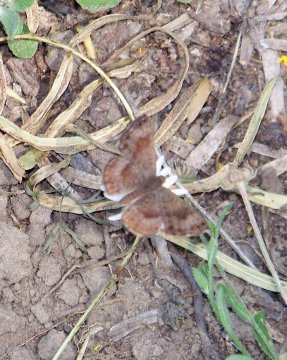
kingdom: Animalia
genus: Calephelis
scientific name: Calephelis nemesis
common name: Fatal Metalmark
